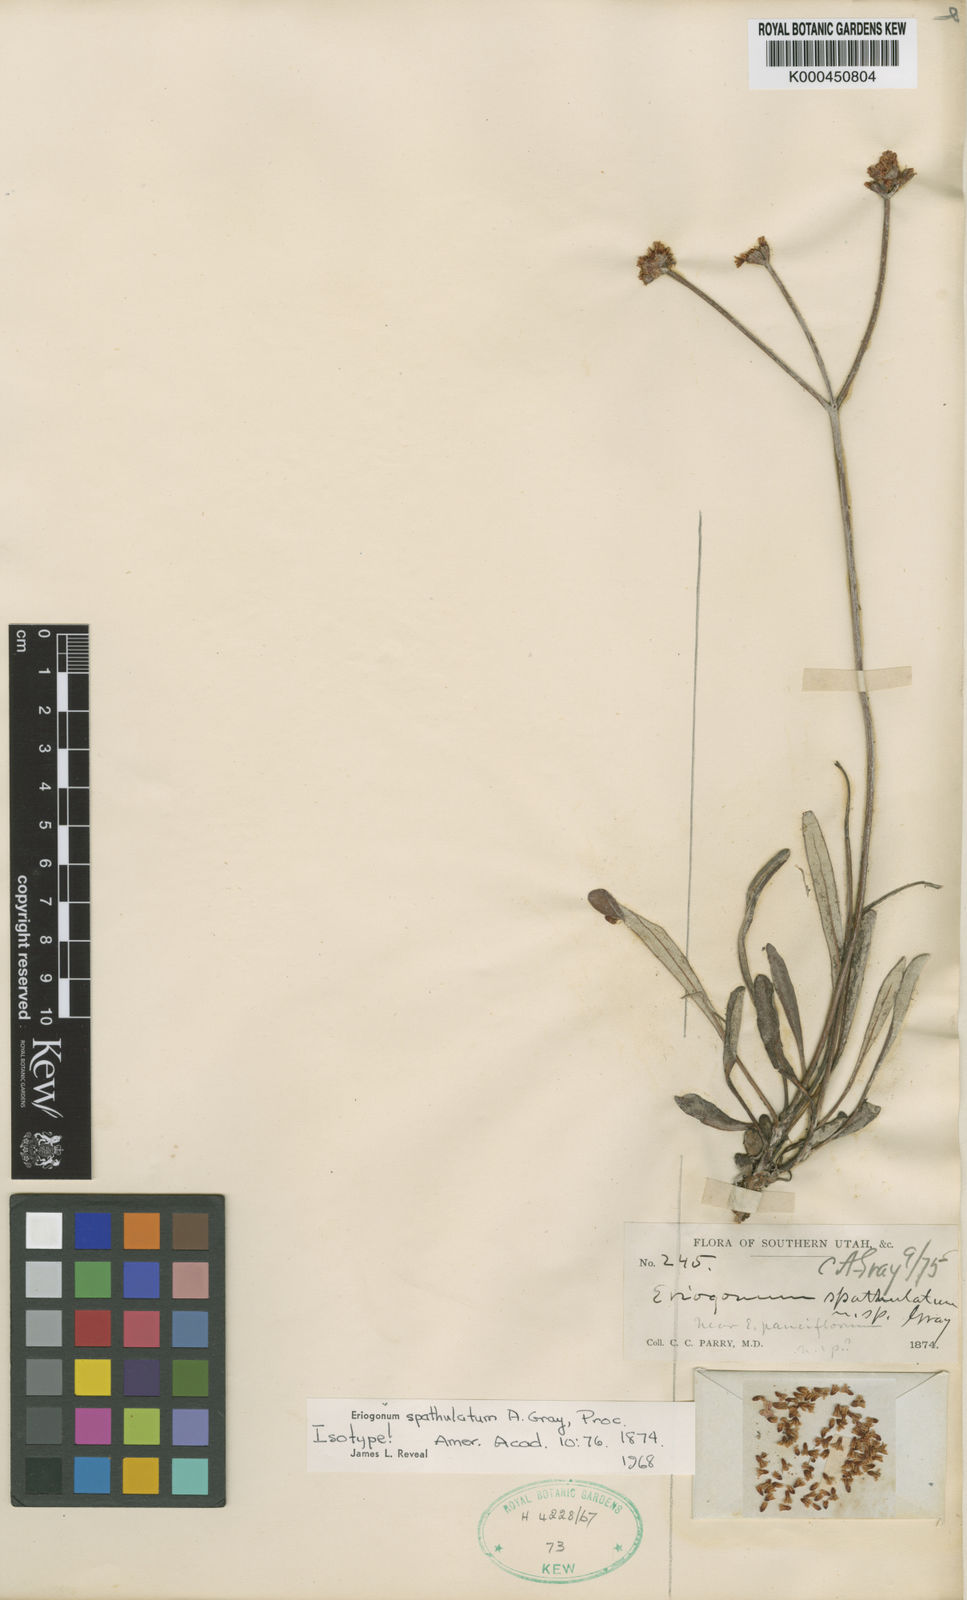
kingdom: Plantae
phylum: Tracheophyta
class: Magnoliopsida
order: Caryophyllales
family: Polygonaceae
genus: Eriogonum
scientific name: Eriogonum spathulatum
